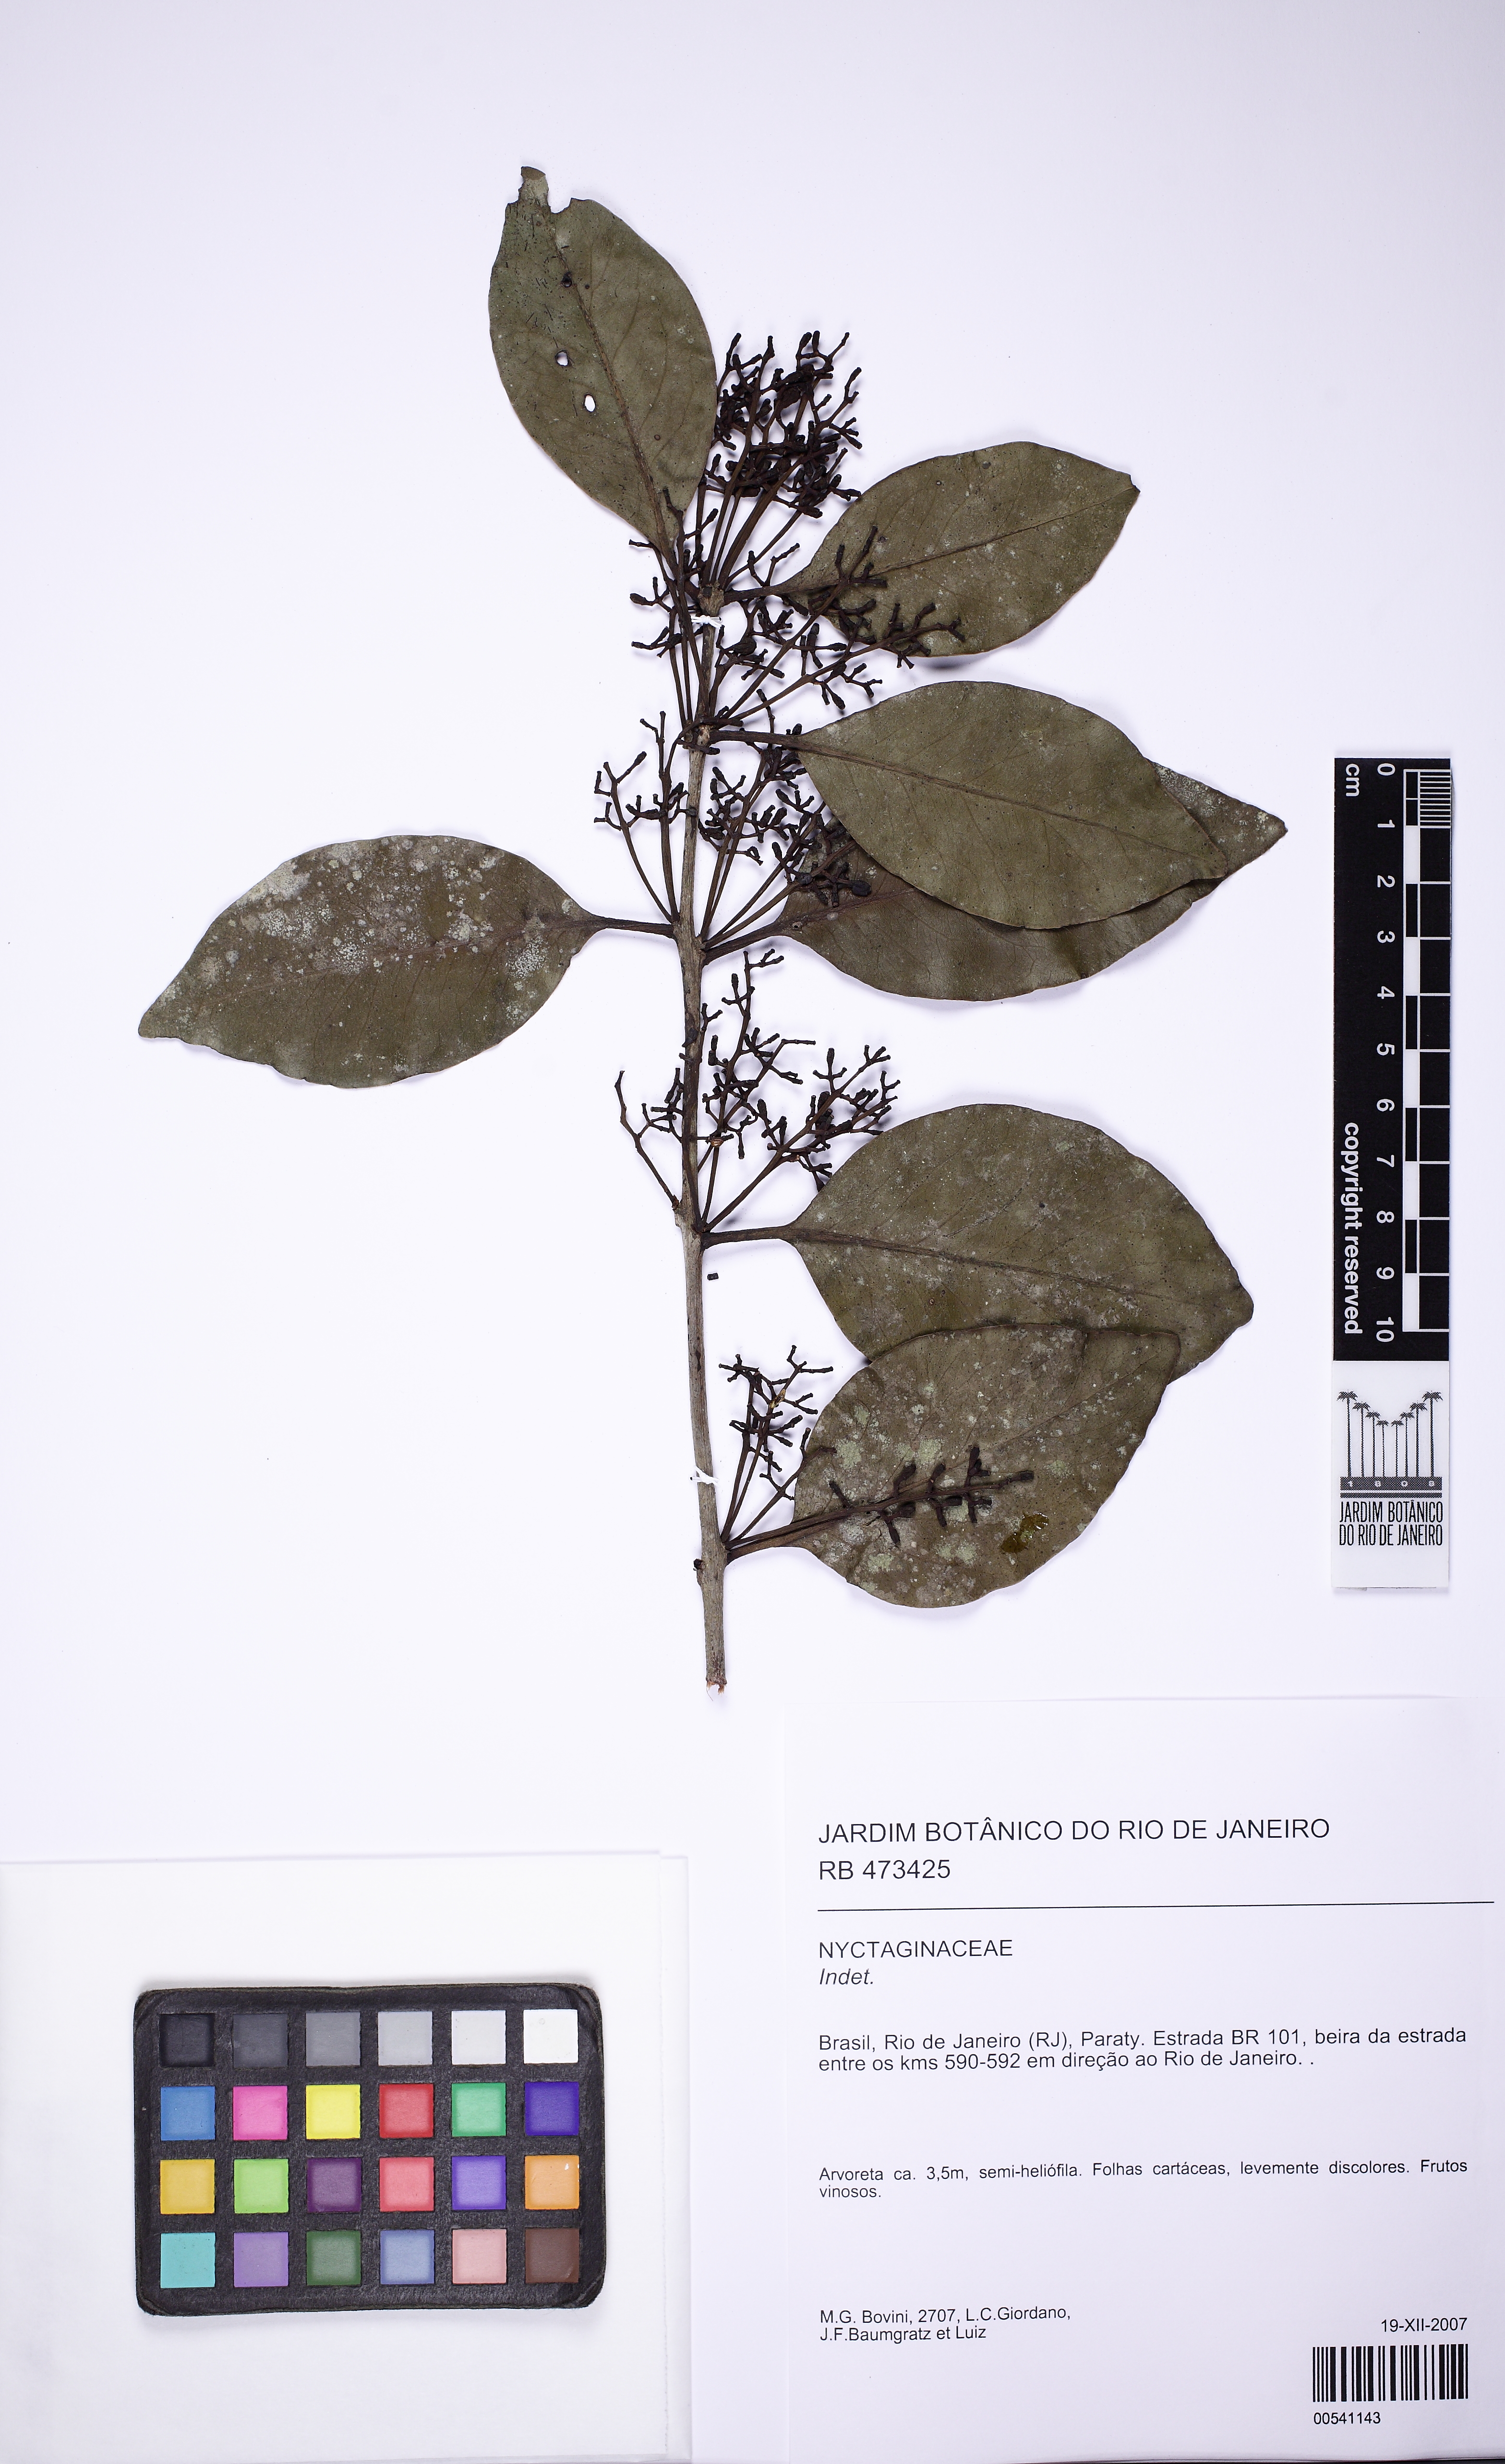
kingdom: Plantae
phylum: Tracheophyta
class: Magnoliopsida
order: Santalales
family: Loranthaceae
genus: Struthanthus
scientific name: Struthanthus rhynchophyllus
